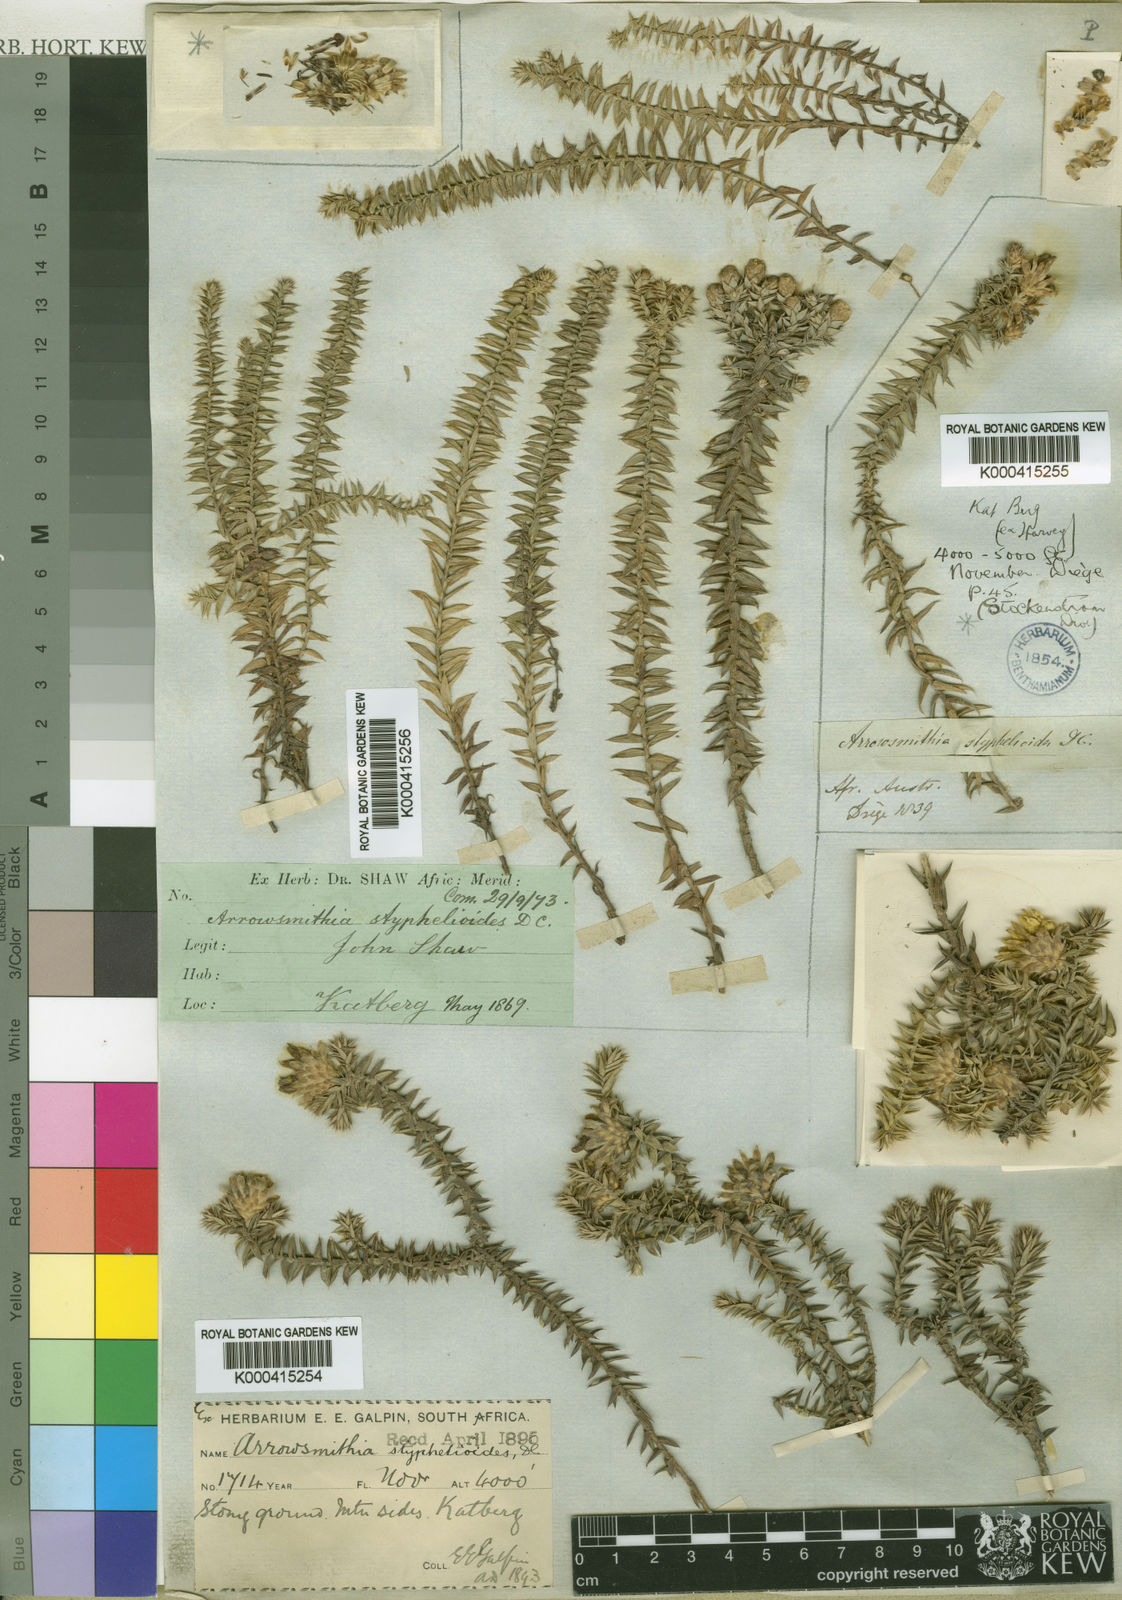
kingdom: Plantae
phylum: Tracheophyta
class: Magnoliopsida
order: Asterales
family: Asteraceae
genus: Arrowsmithia
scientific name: Arrowsmithia styphelioides
